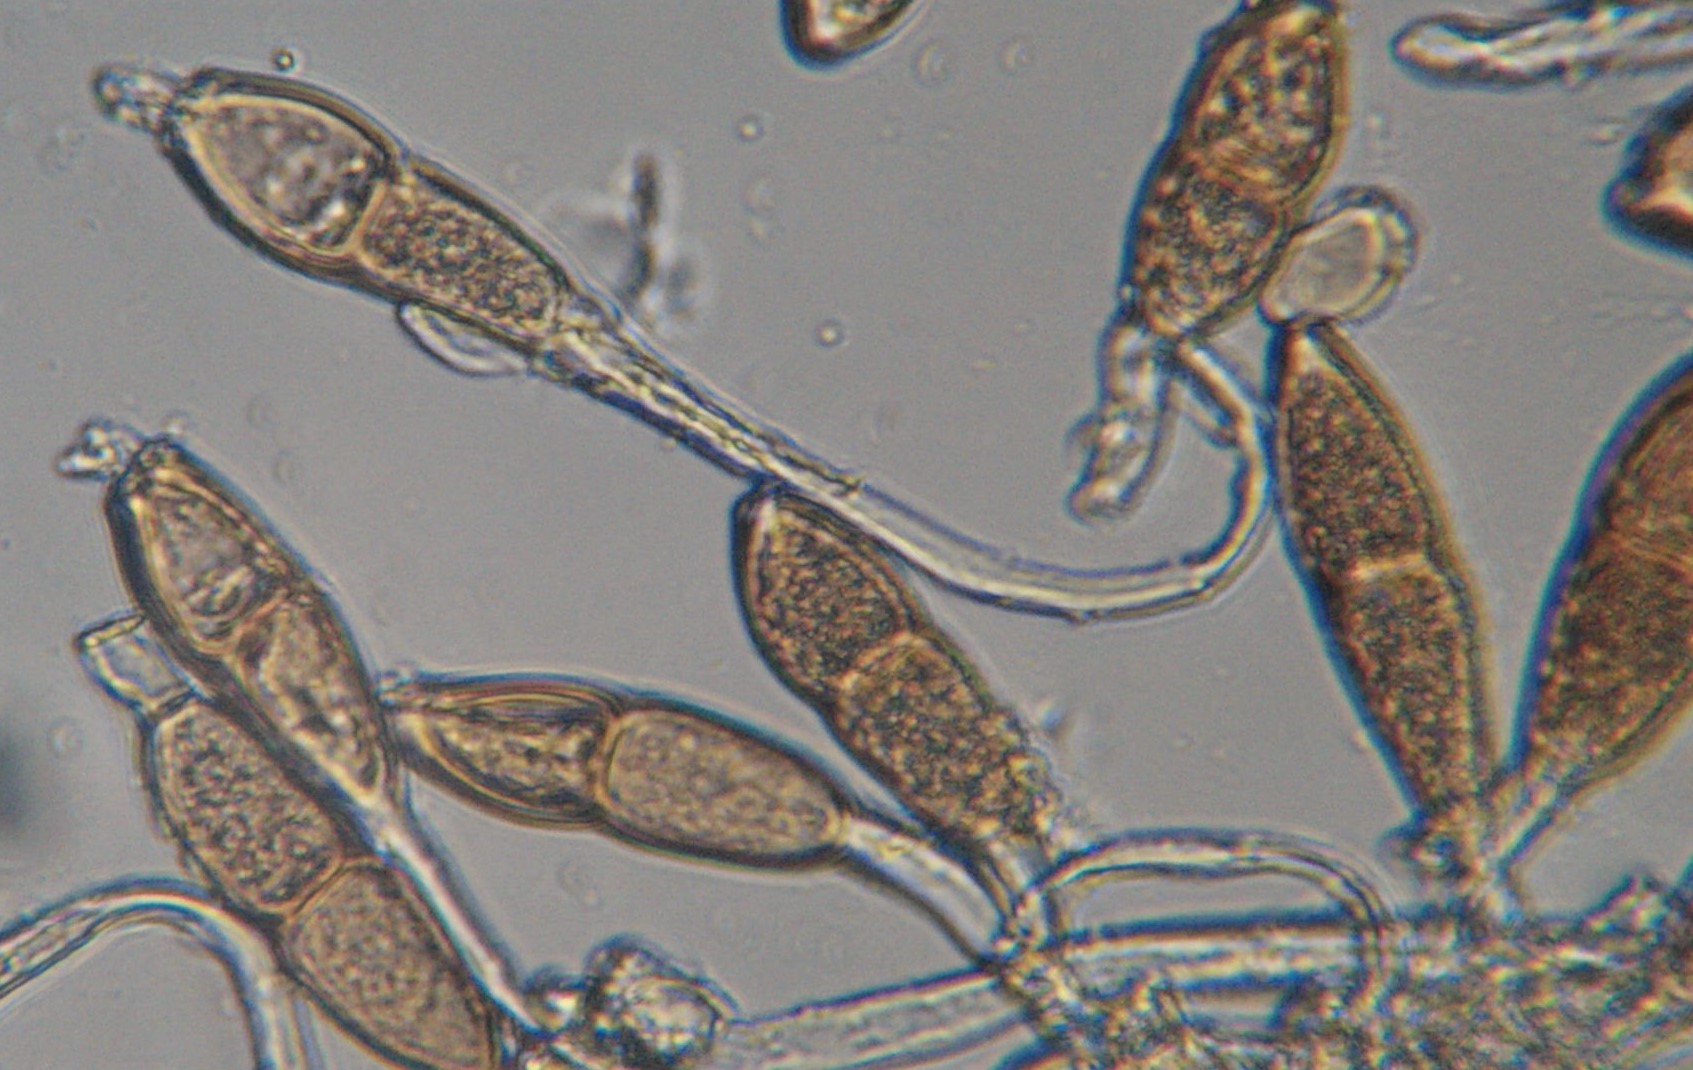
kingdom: Fungi
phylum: Basidiomycota
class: Pucciniomycetes
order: Pucciniales
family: Pucciniaceae
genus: Puccinia
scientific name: Puccinia malvacearum
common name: stokrose-tvecellerust
